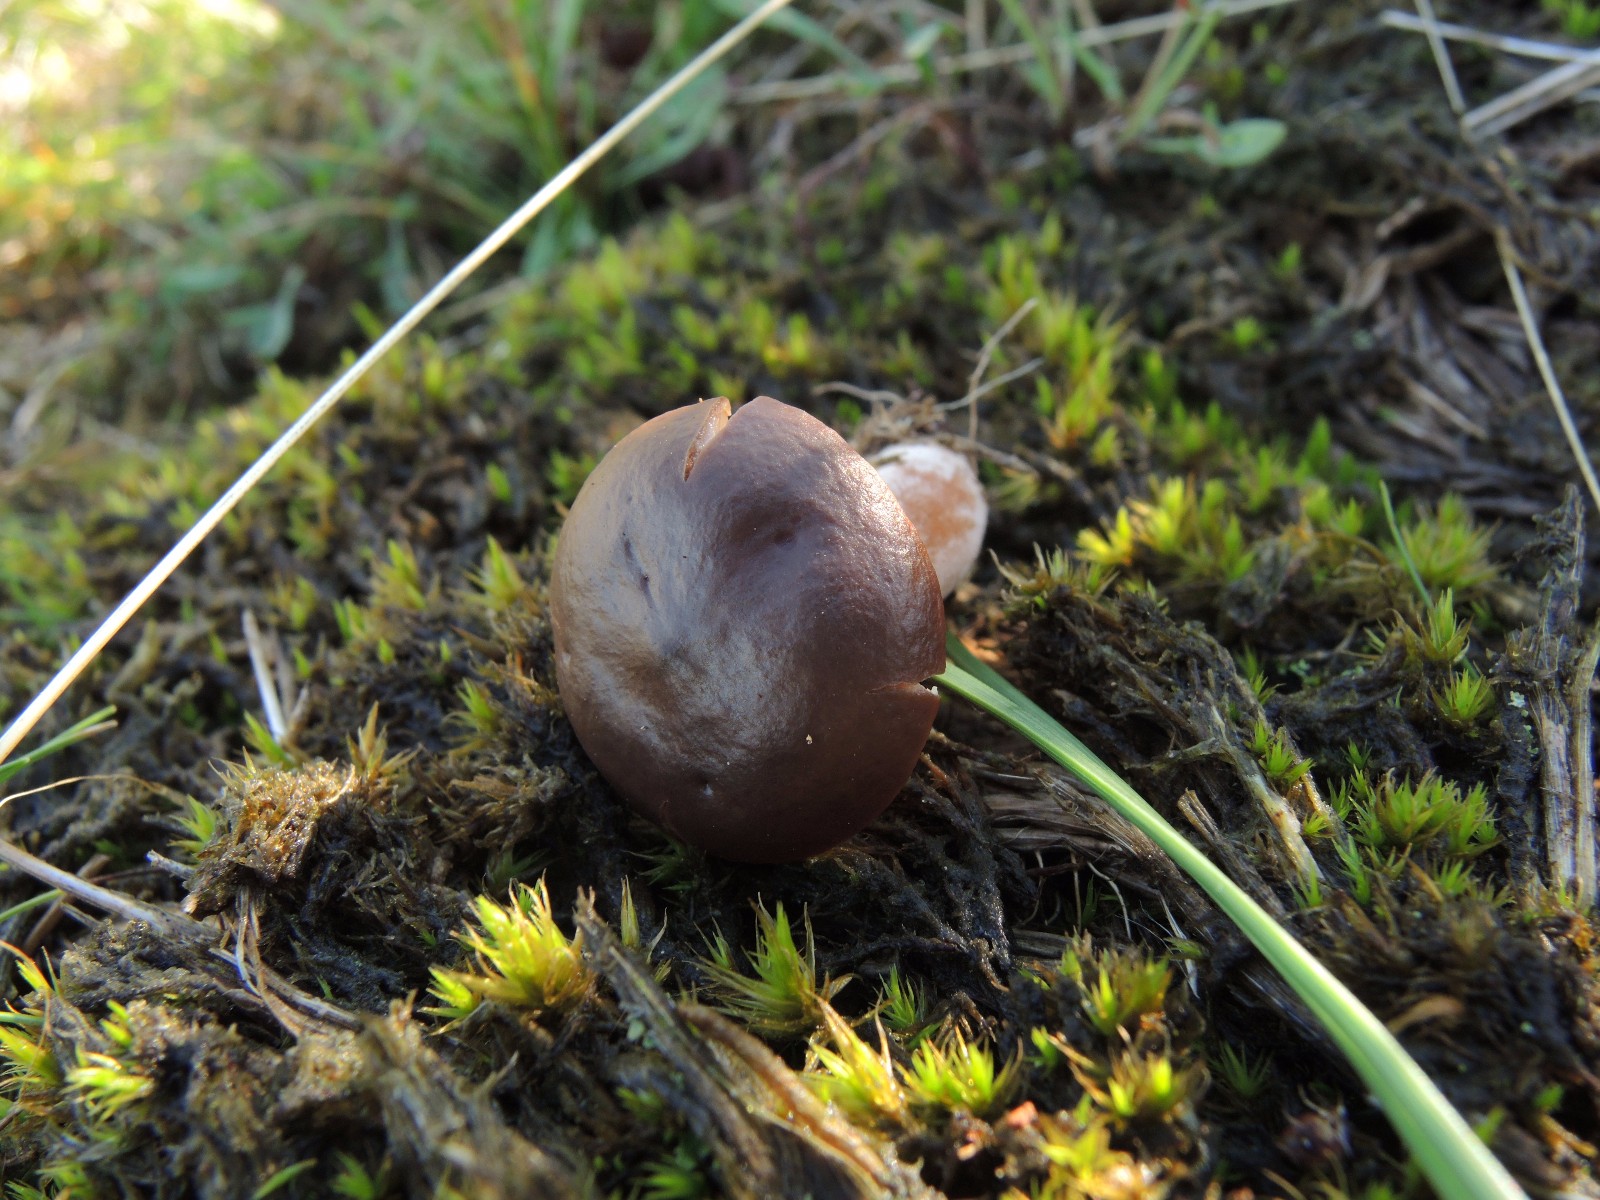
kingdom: Fungi
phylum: Basidiomycota
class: Agaricomycetes
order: Russulales
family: Russulaceae
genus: Lactarius
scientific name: Lactarius hepaticus
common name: leverbrun mælkehat
